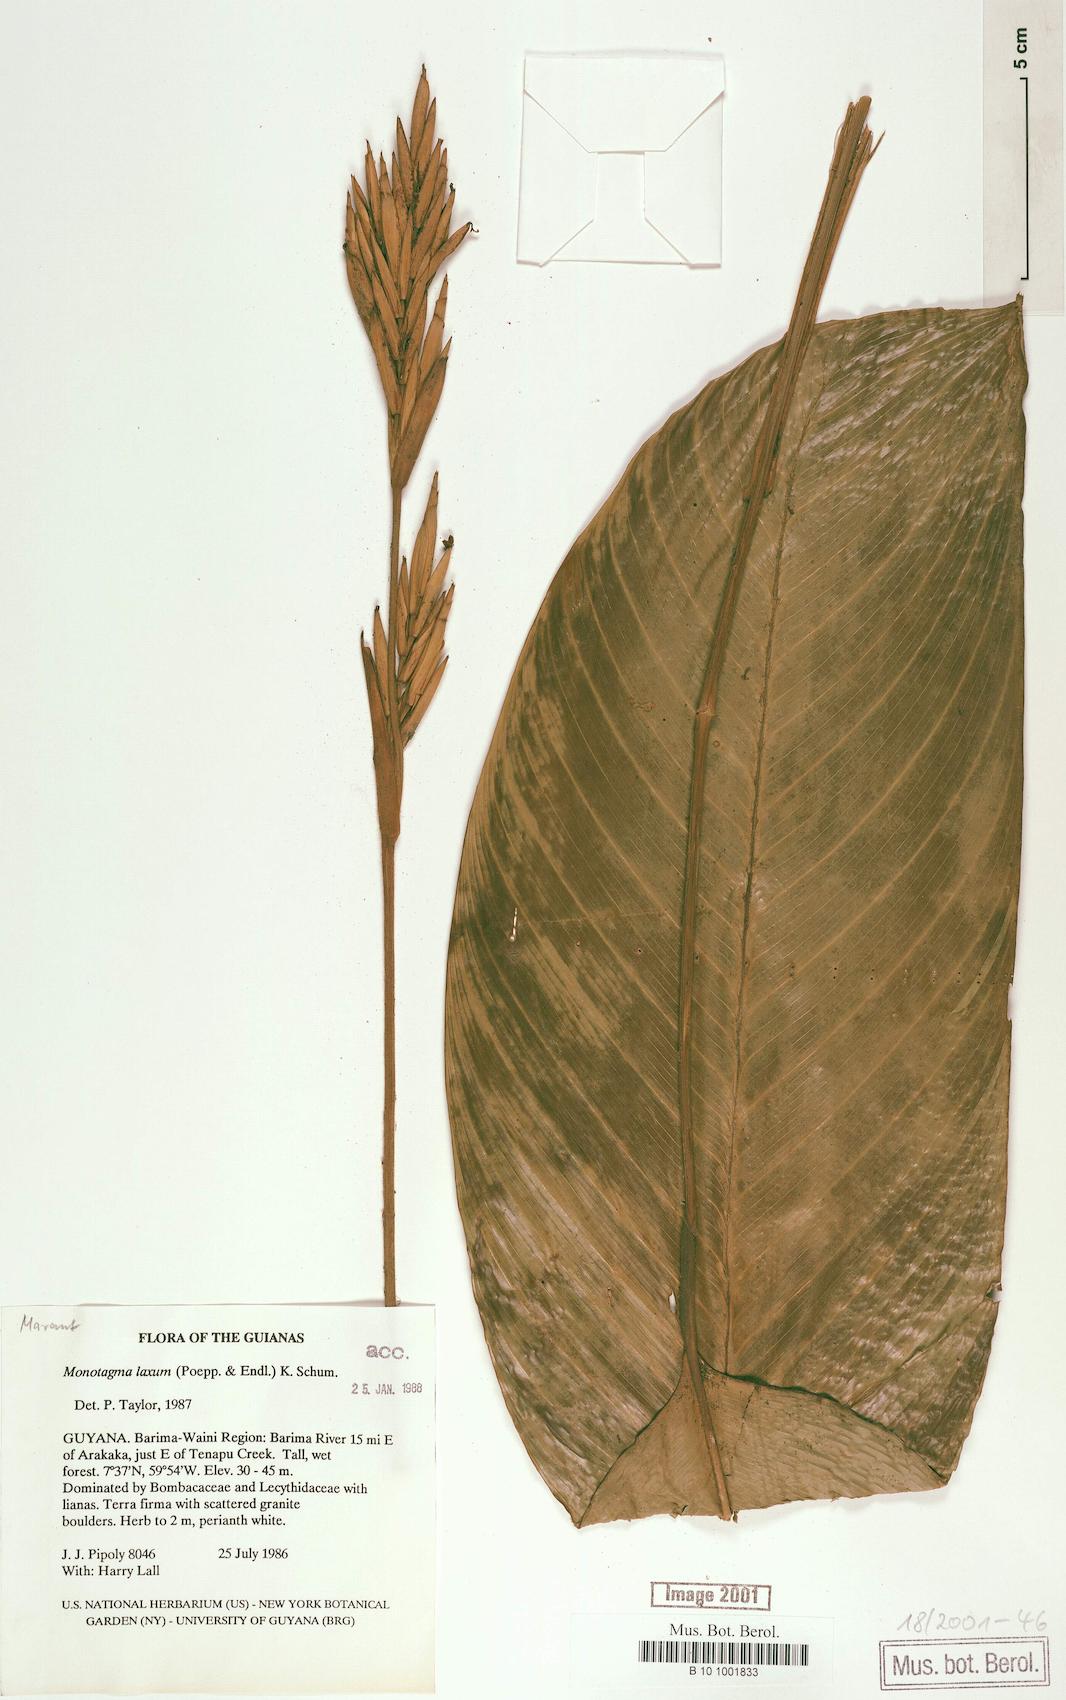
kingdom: Plantae
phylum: Tracheophyta
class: Liliopsida
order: Zingiberales
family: Marantaceae
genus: Monotagma
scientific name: Monotagma laxum
